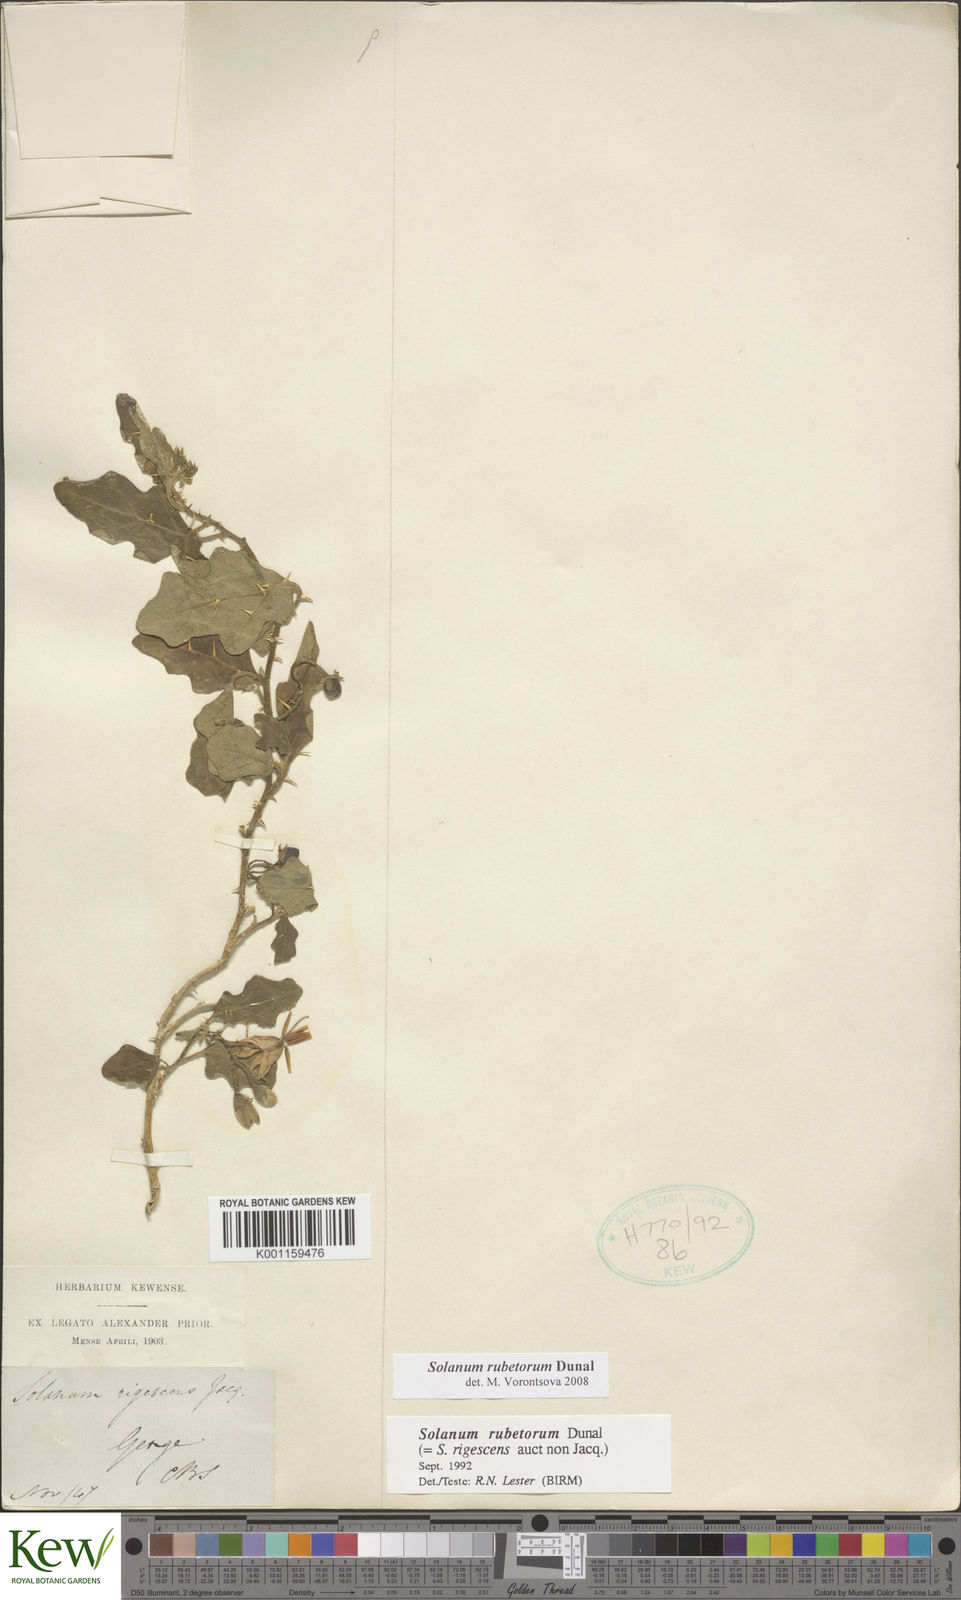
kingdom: Plantae
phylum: Tracheophyta
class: Magnoliopsida
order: Solanales
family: Solanaceae
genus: Solanum
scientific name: Solanum rubetorum
